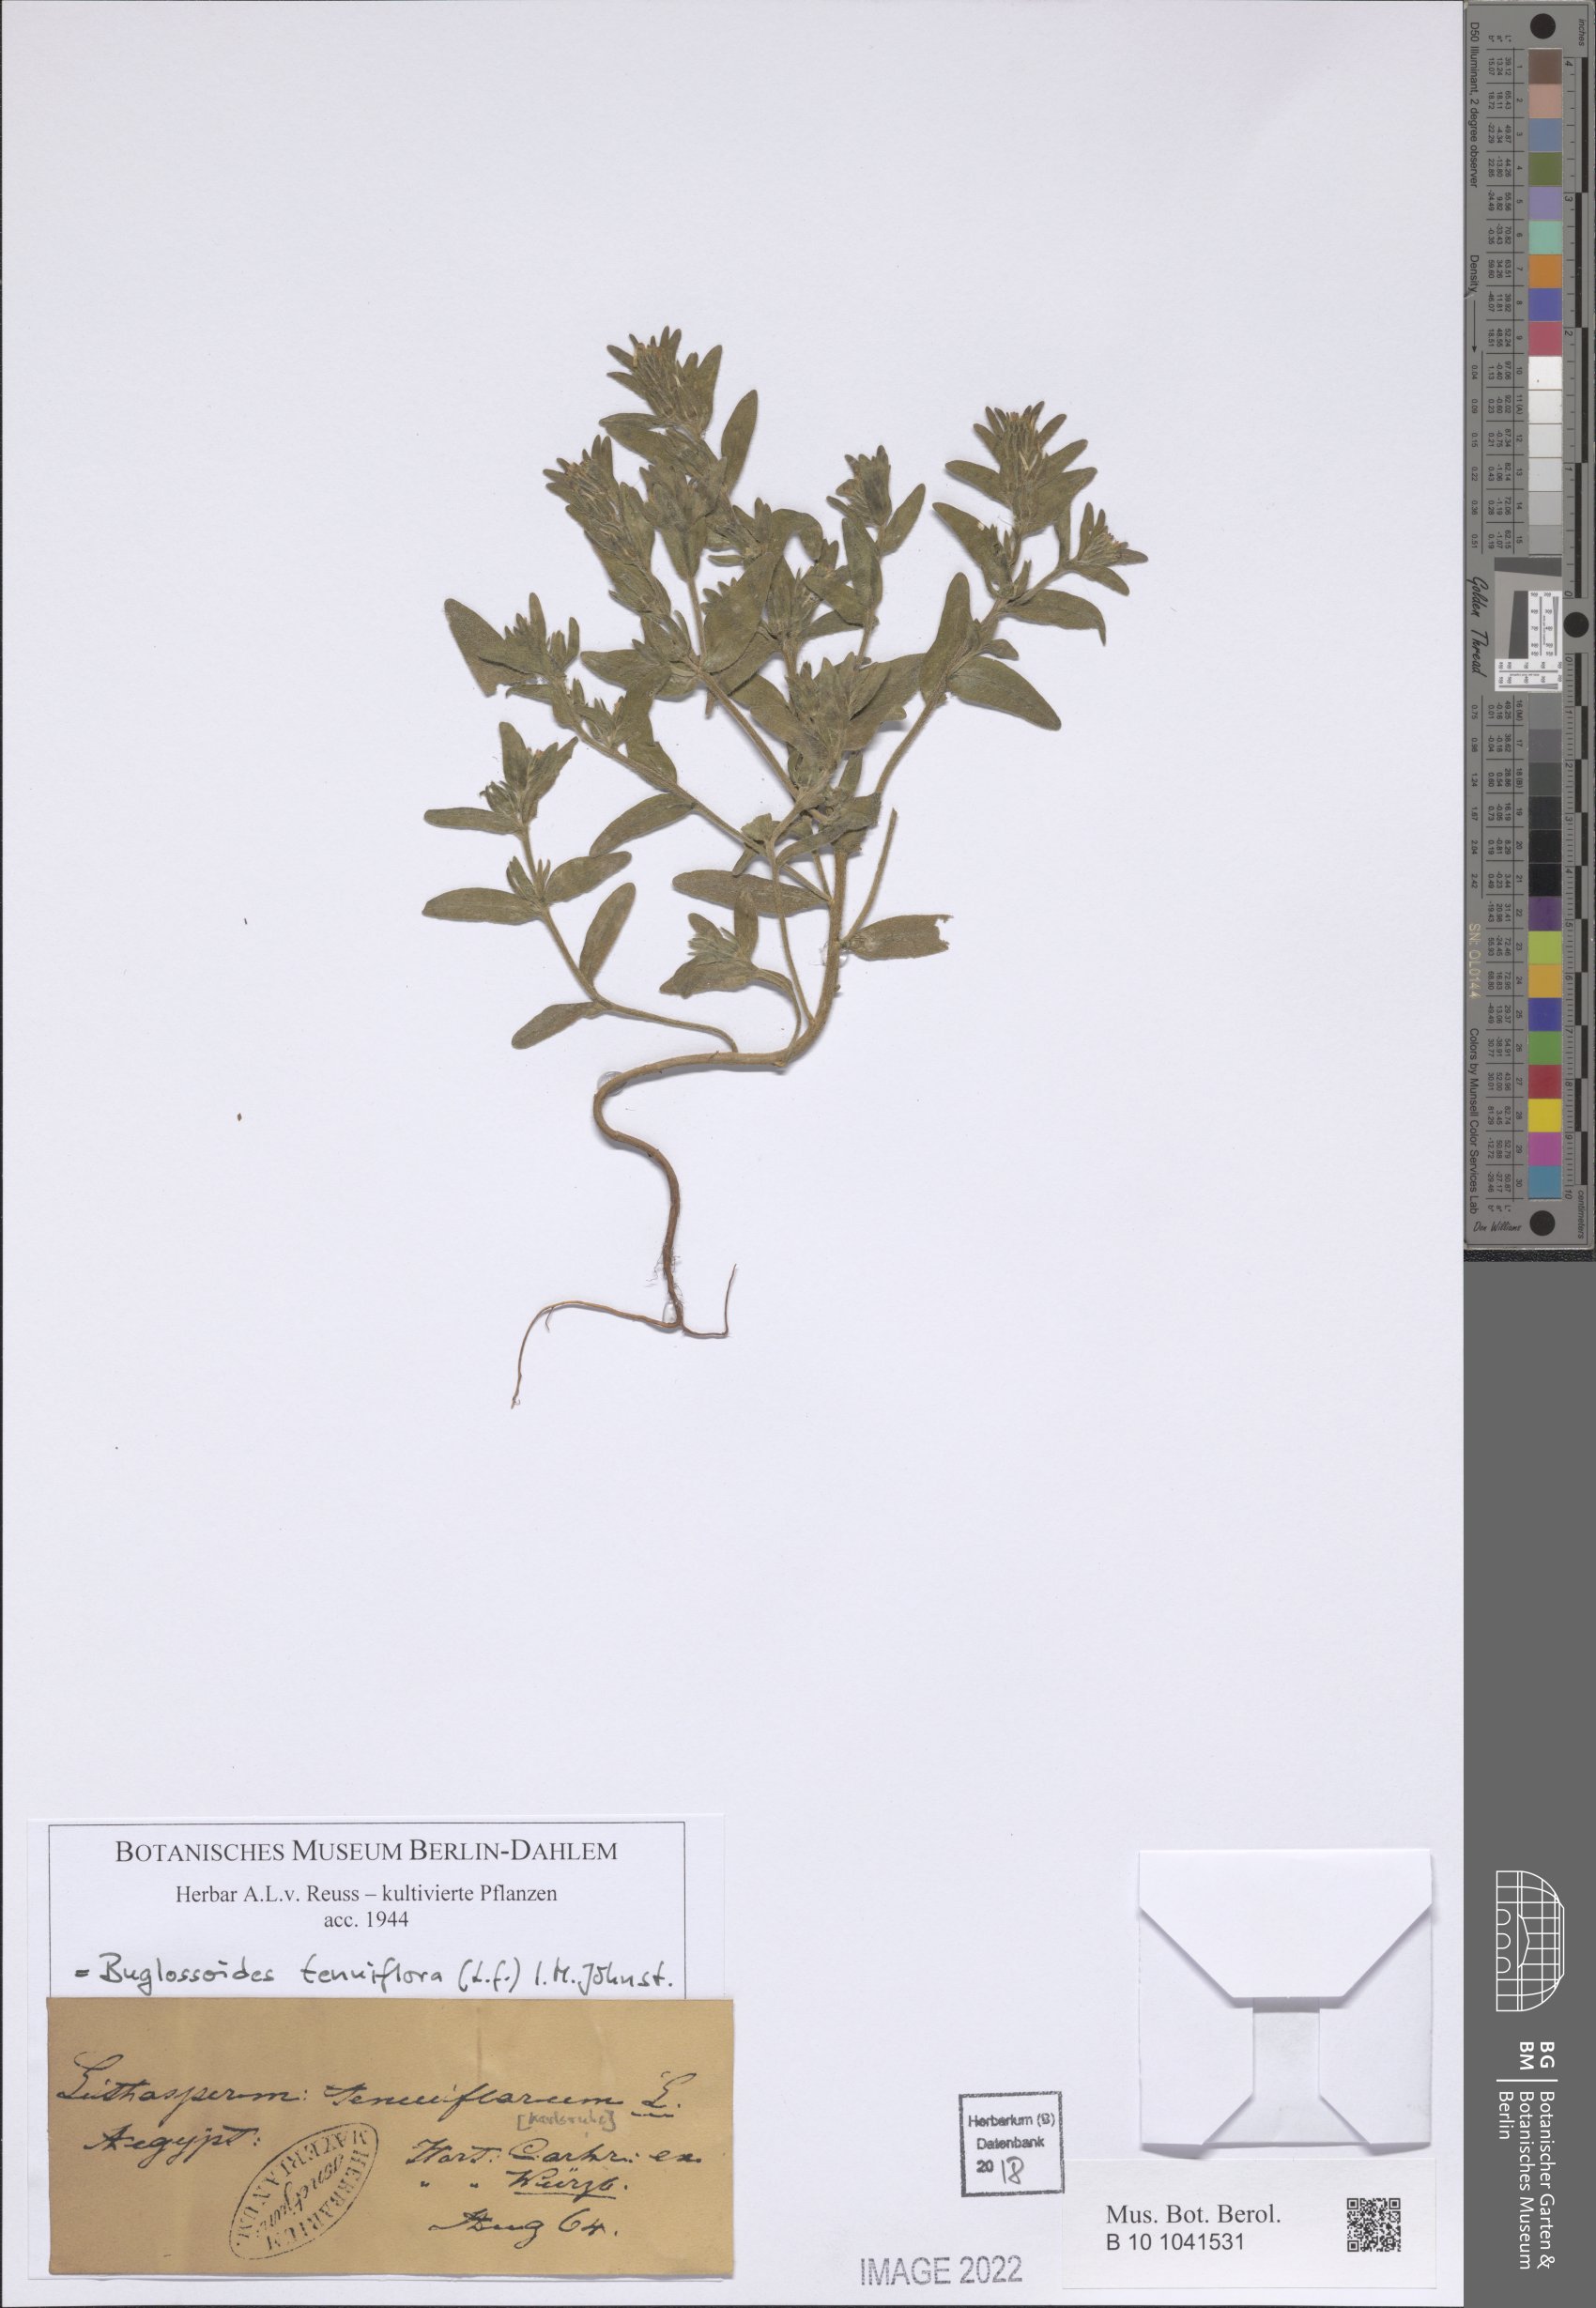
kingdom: Plantae
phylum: Tracheophyta
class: Magnoliopsida
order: Boraginales
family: Boraginaceae
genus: Buglossoides
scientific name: Buglossoides tenuiflora
